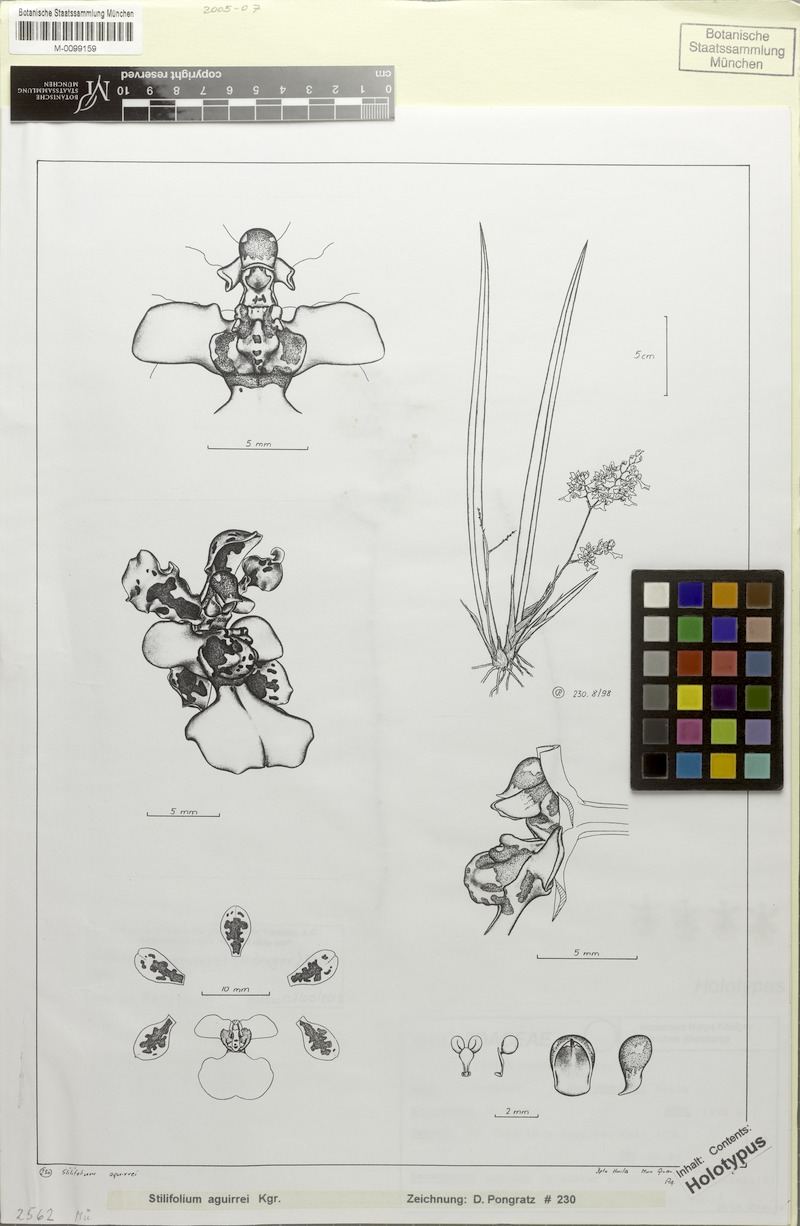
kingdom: Plantae
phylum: Tracheophyta
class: Liliopsida
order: Asparagales
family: Orchidaceae
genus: Trichocentrum
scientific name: Trichocentrum aguirrei
